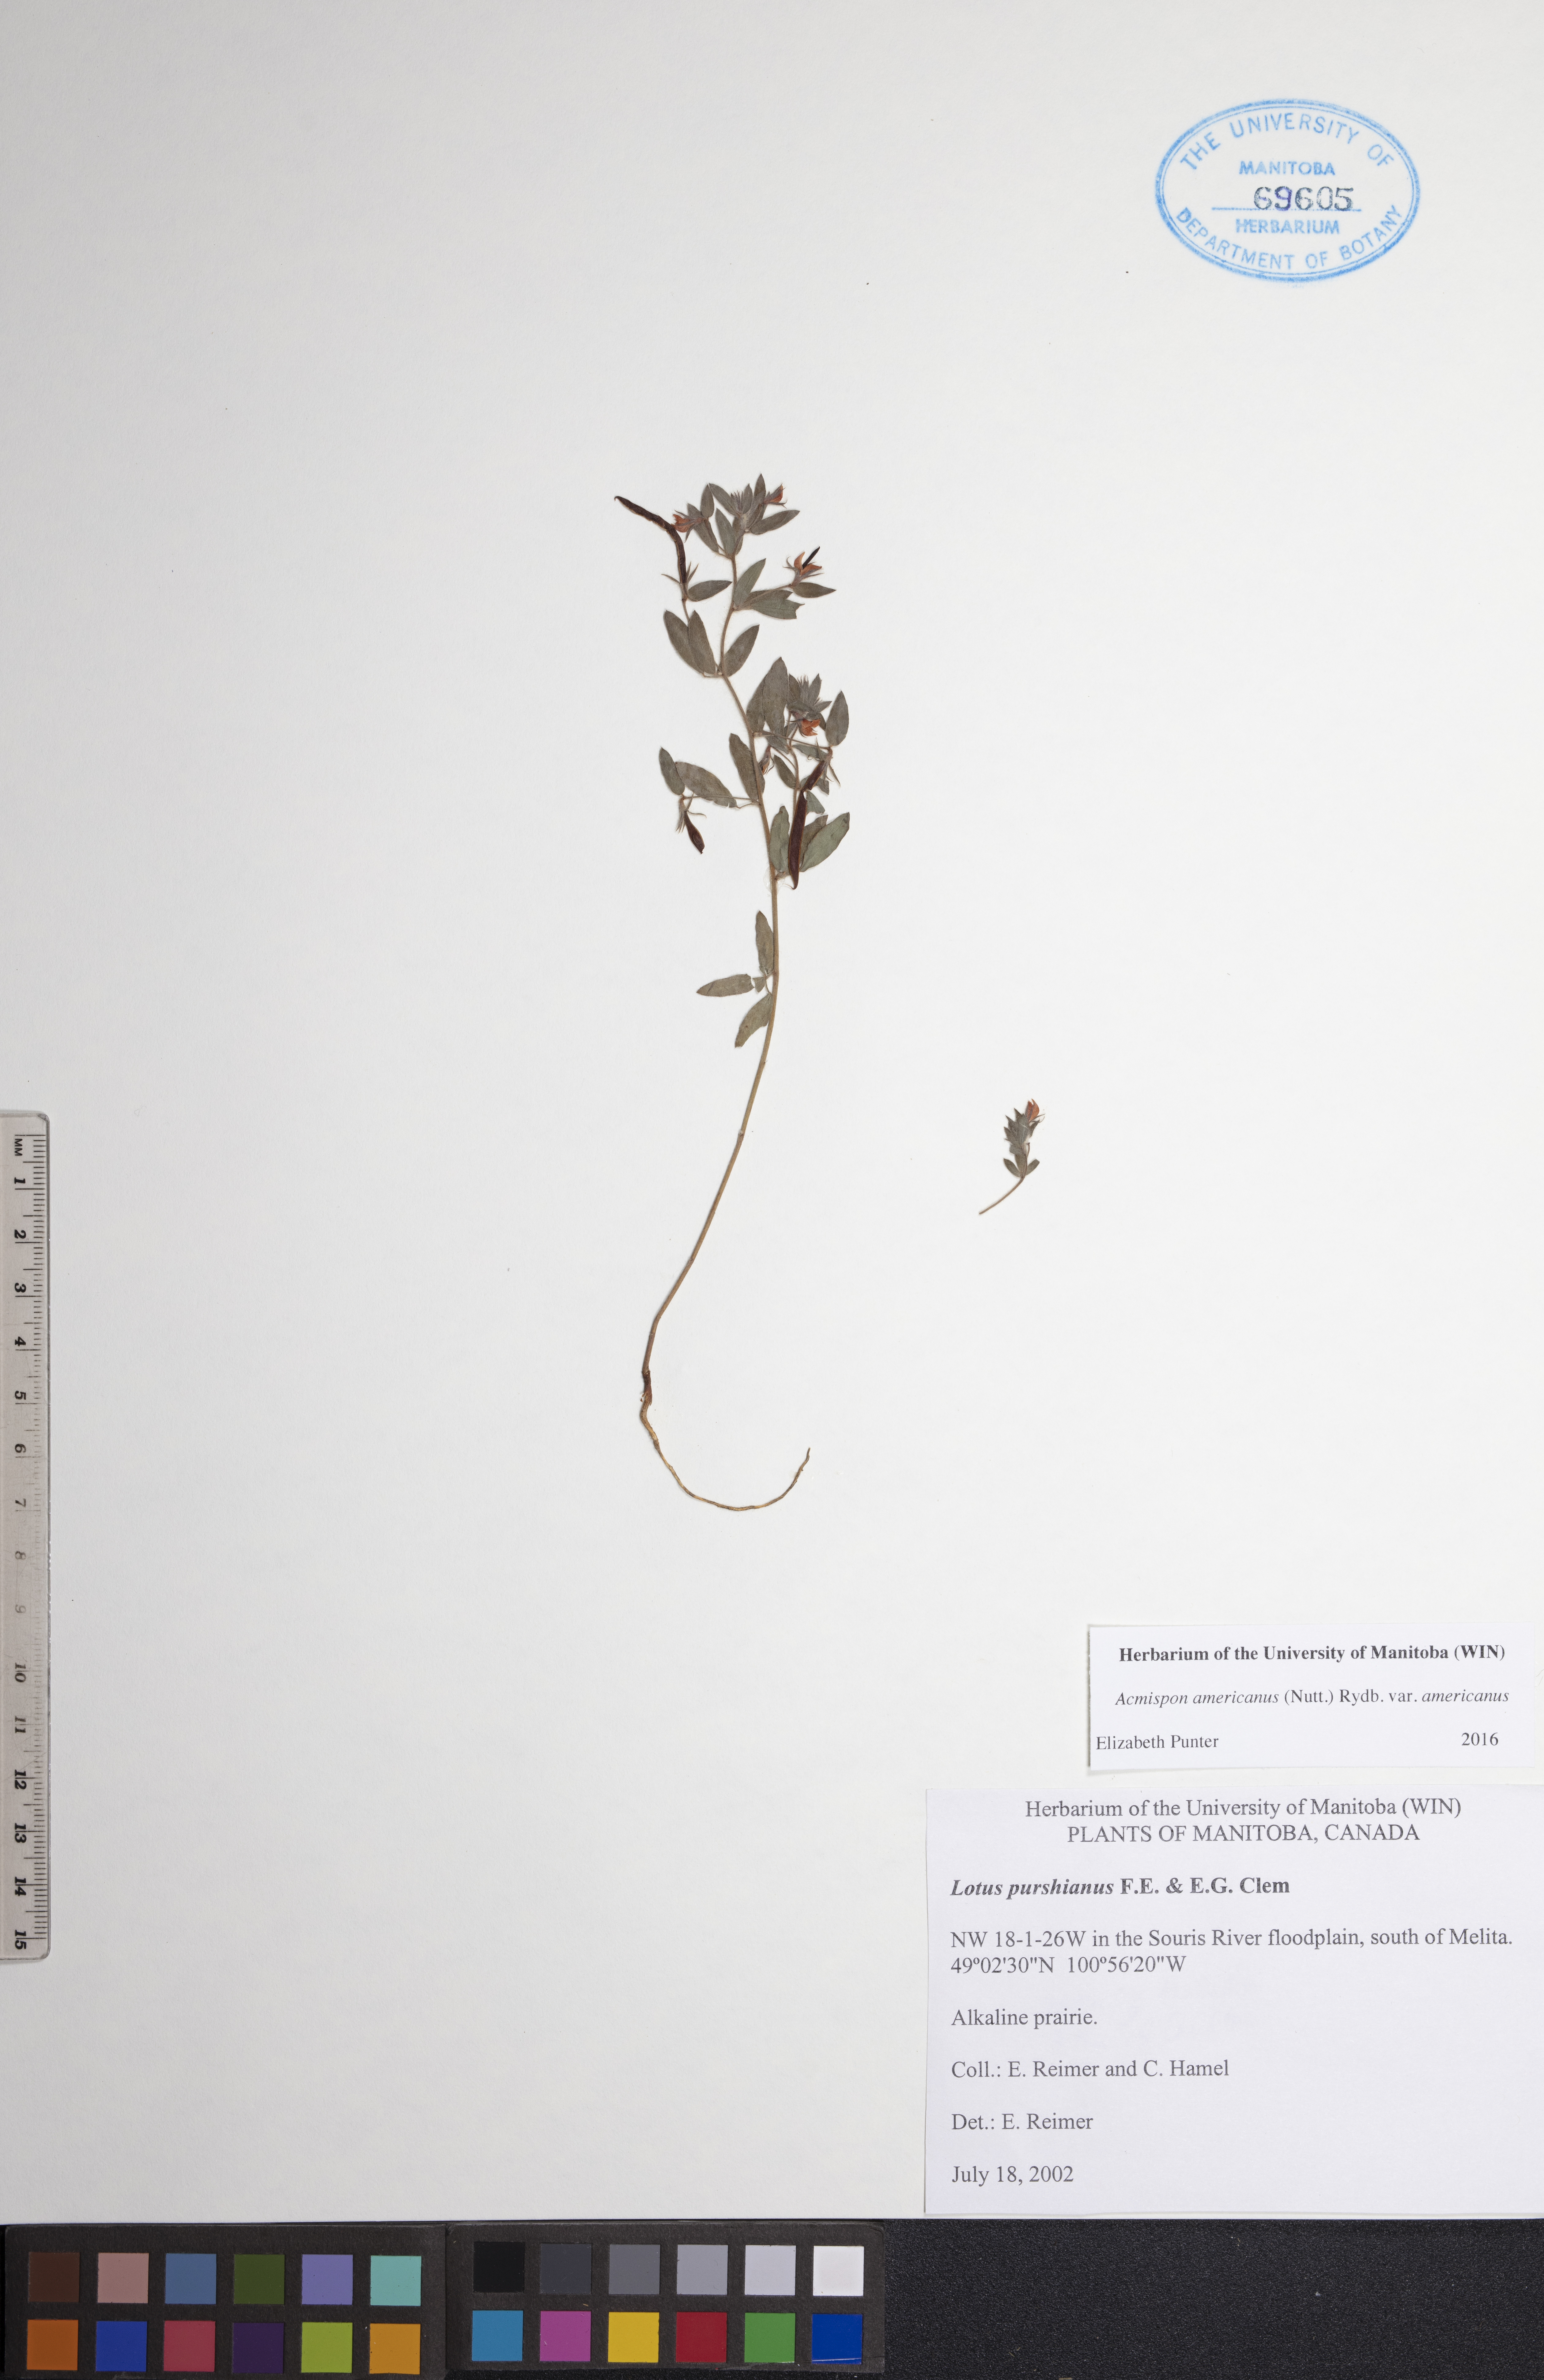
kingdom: Plantae
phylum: Tracheophyta
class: Magnoliopsida
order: Fabales
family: Fabaceae
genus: Acmispon
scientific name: Acmispon americanus
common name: American bird's-foot trefoil
